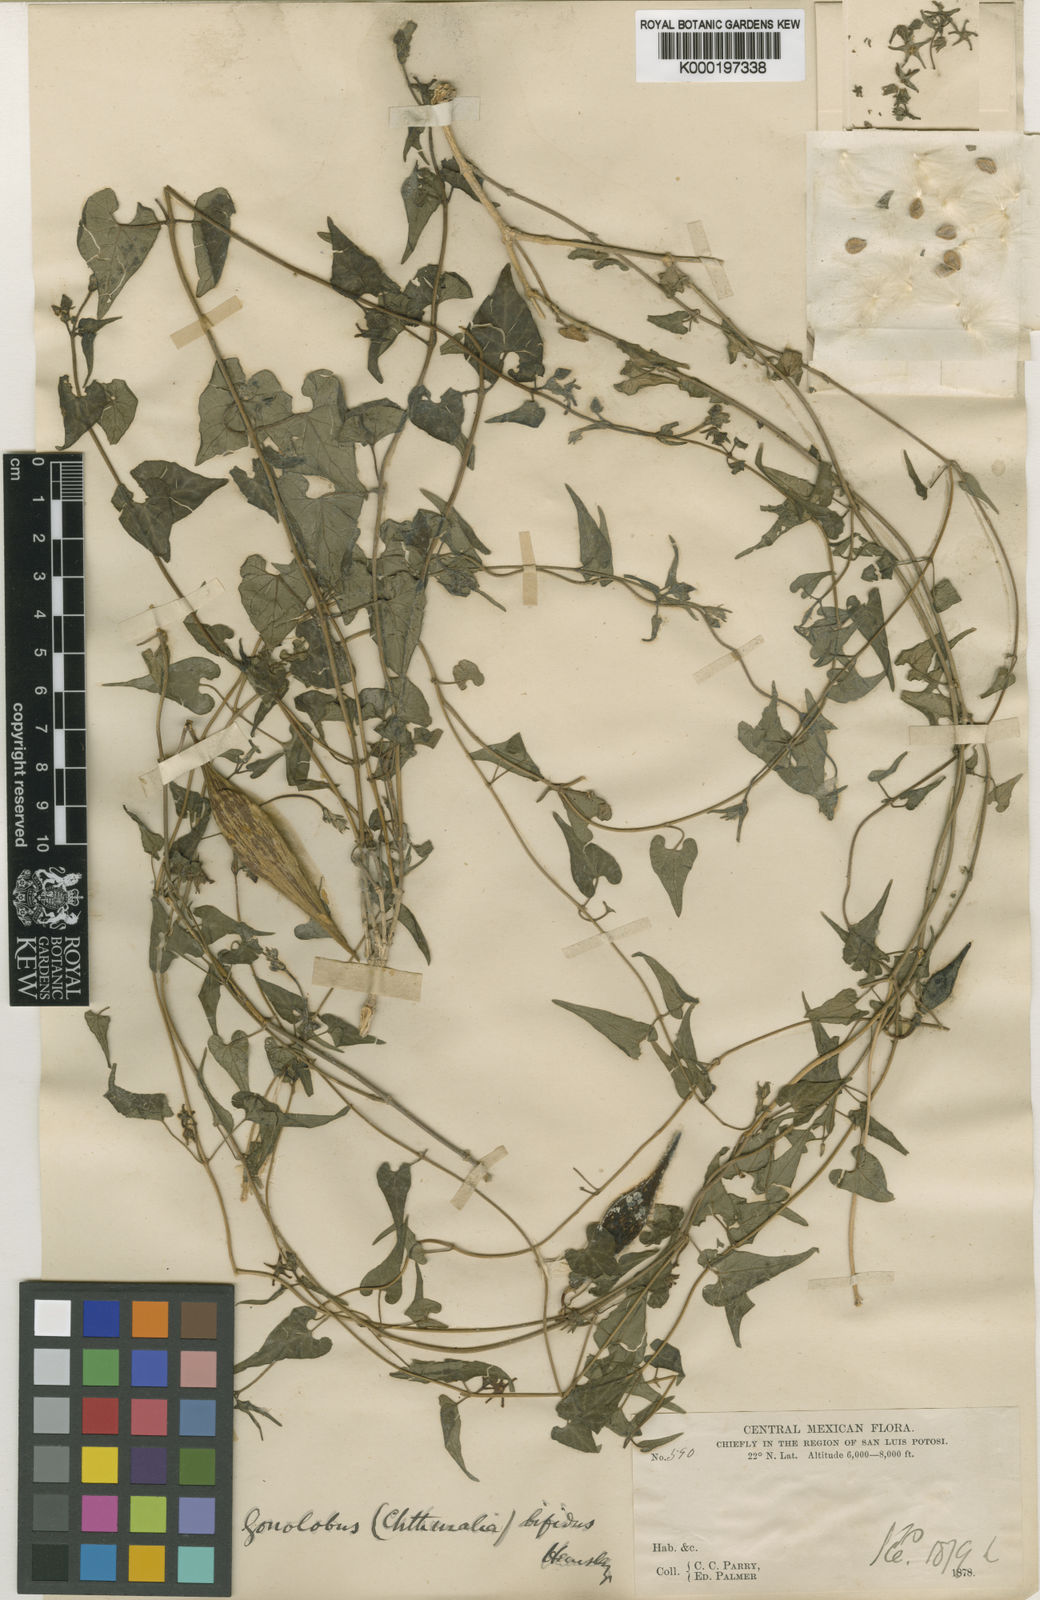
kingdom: Plantae
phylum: Tracheophyta
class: Magnoliopsida
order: Gentianales
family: Apocynaceae
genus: Gonolobus
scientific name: Gonolobus bifidus
